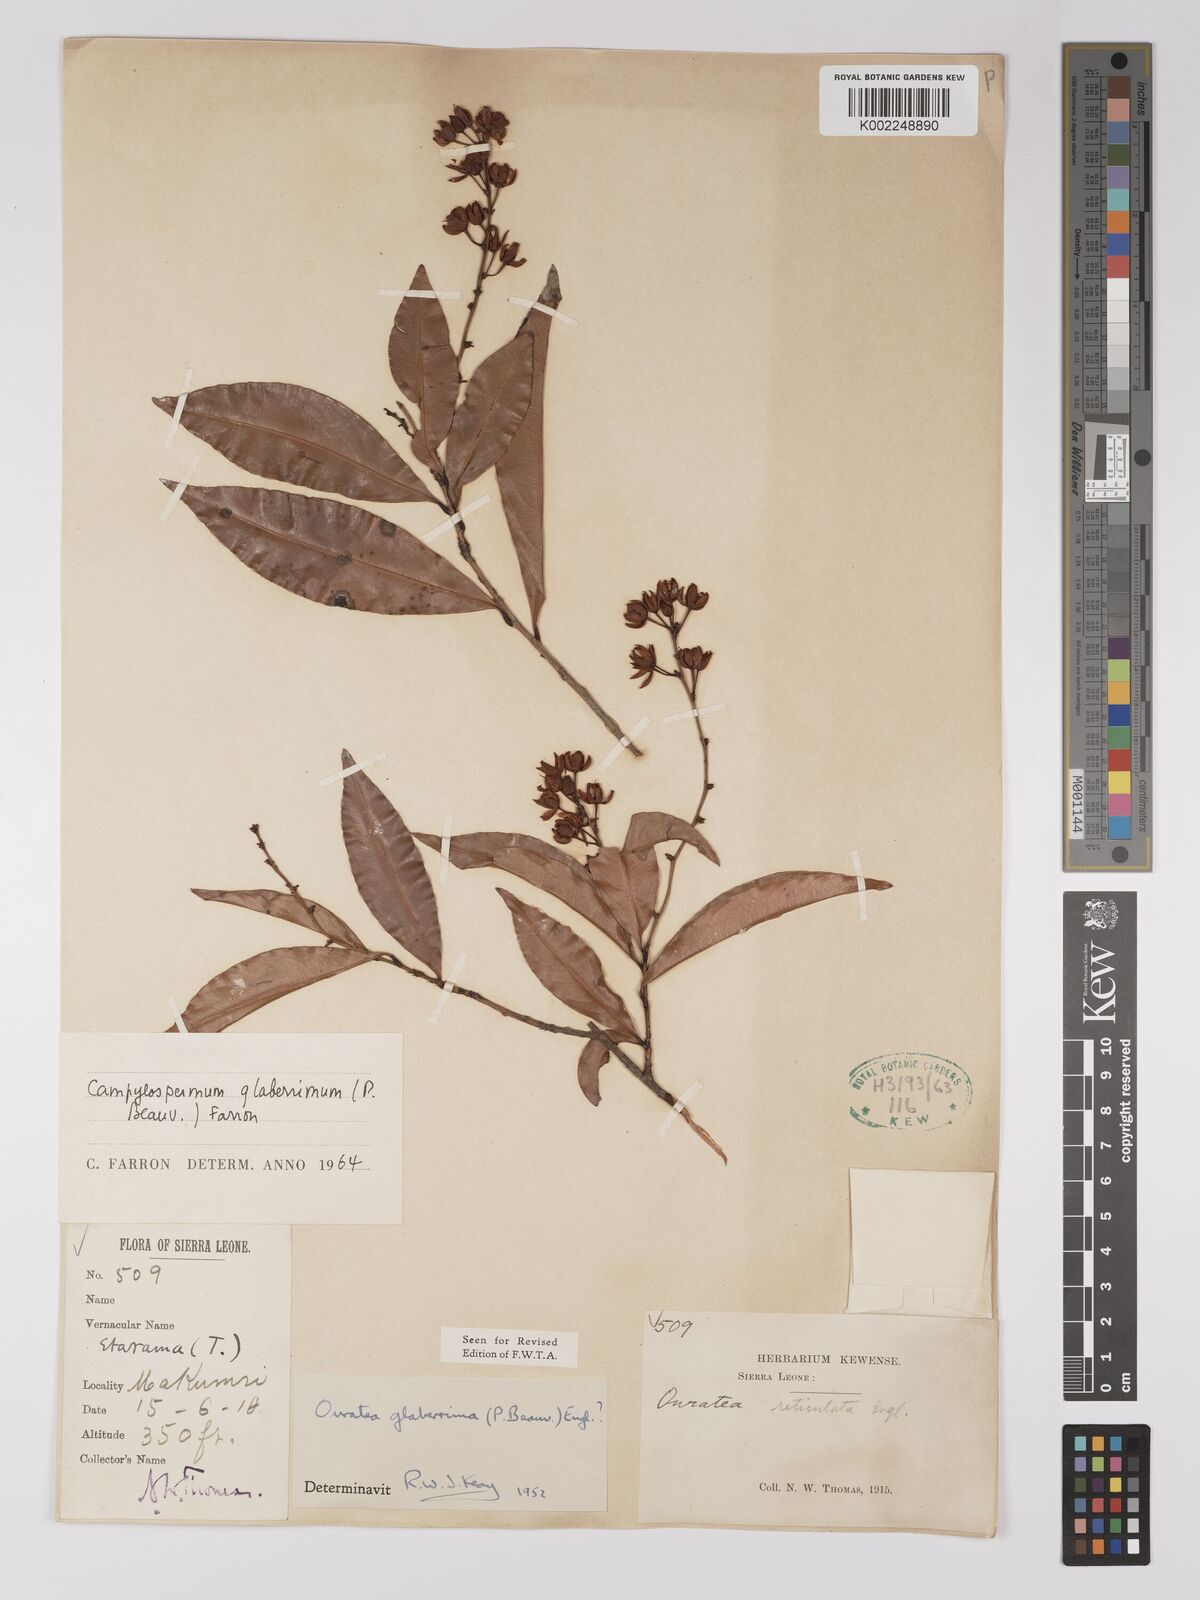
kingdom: Plantae
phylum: Tracheophyta
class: Magnoliopsida
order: Malpighiales
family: Ochnaceae
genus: Campylospermum
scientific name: Campylospermum glaberrimum
